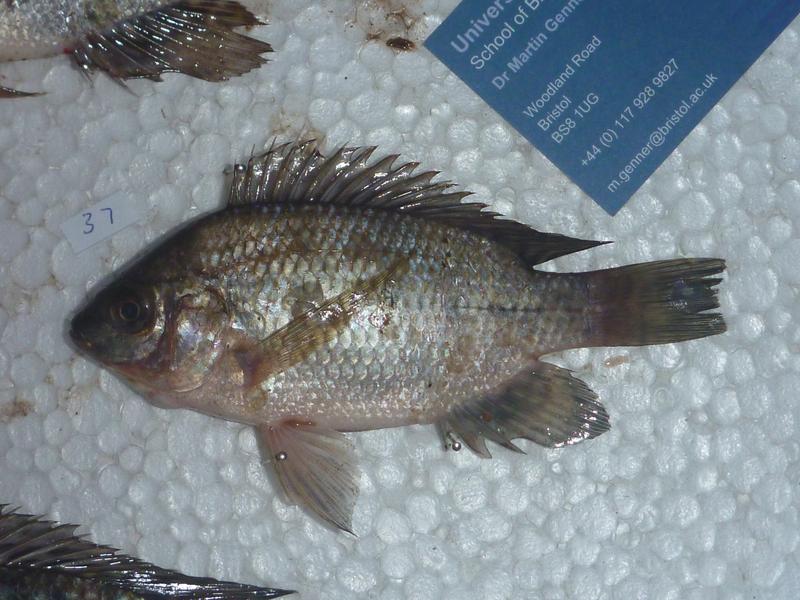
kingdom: Animalia
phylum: Chordata
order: Perciformes
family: Cichlidae
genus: Oreochromis
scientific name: Oreochromis upembae
